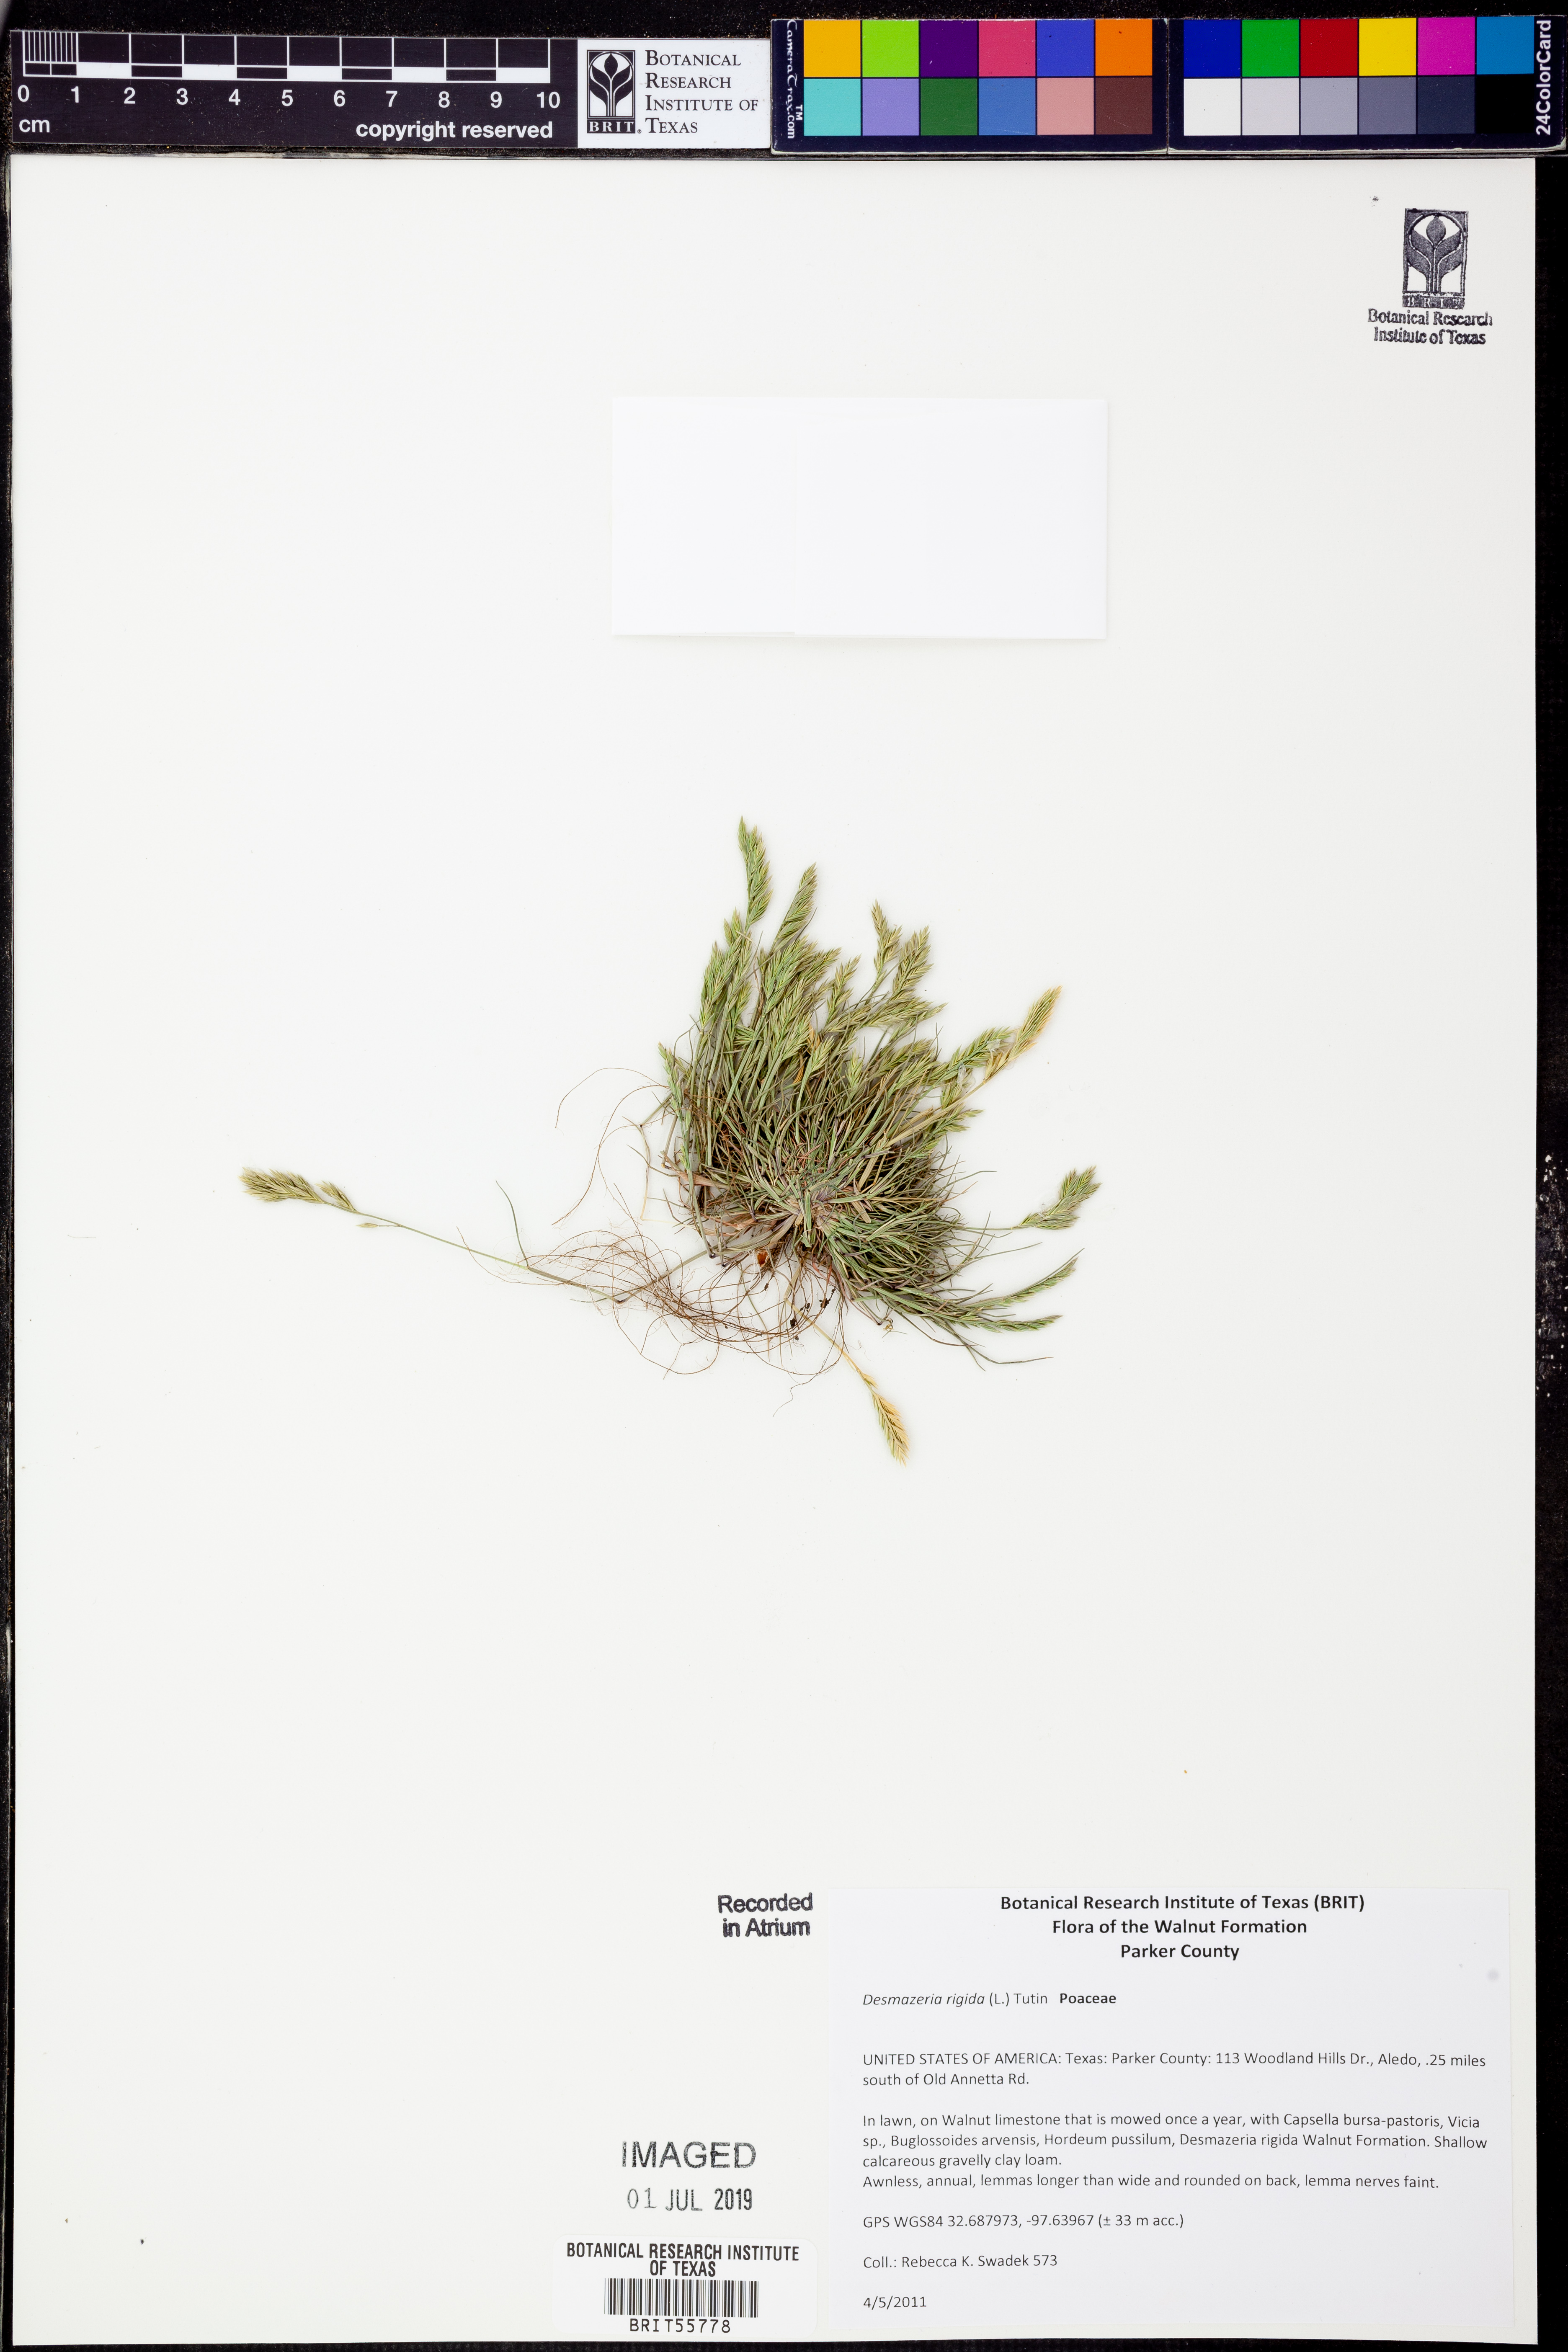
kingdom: Plantae
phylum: Tracheophyta
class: Liliopsida
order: Poales
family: Poaceae
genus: Catapodium
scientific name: Catapodium rigidum
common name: Fern-grass
